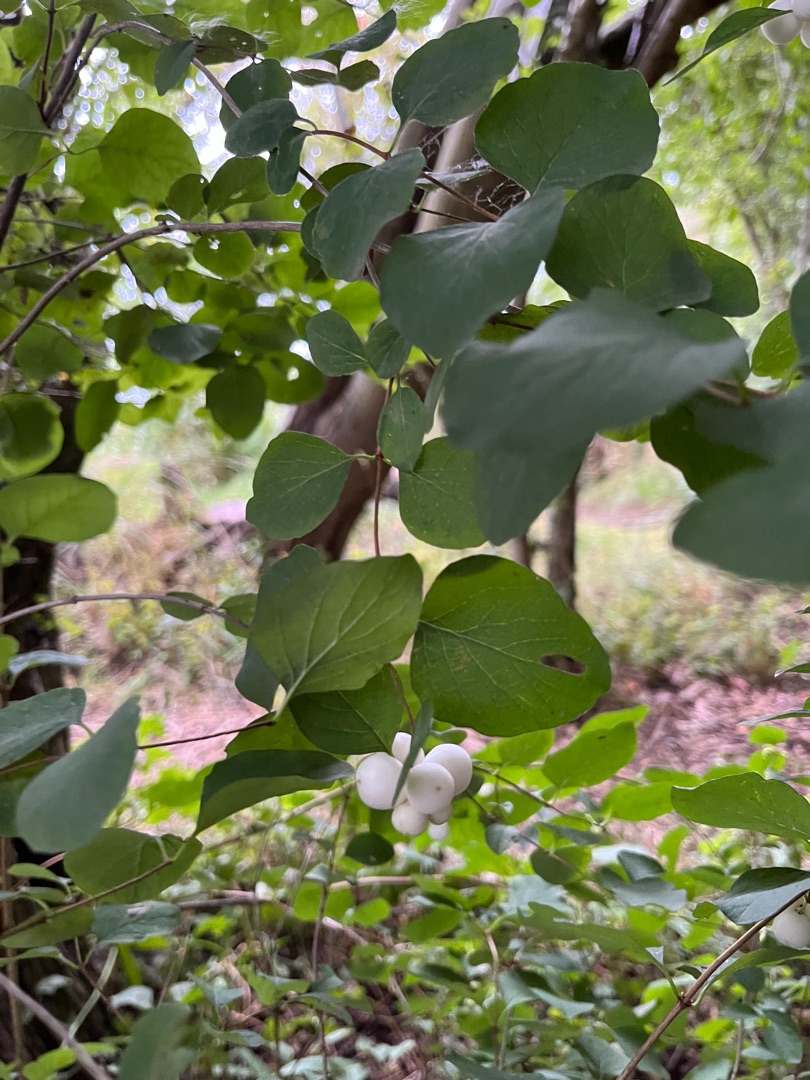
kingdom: Plantae
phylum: Tracheophyta
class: Magnoliopsida
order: Dipsacales
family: Caprifoliaceae
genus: Symphoricarpos
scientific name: Symphoricarpos albus
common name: Almindelig snebær
